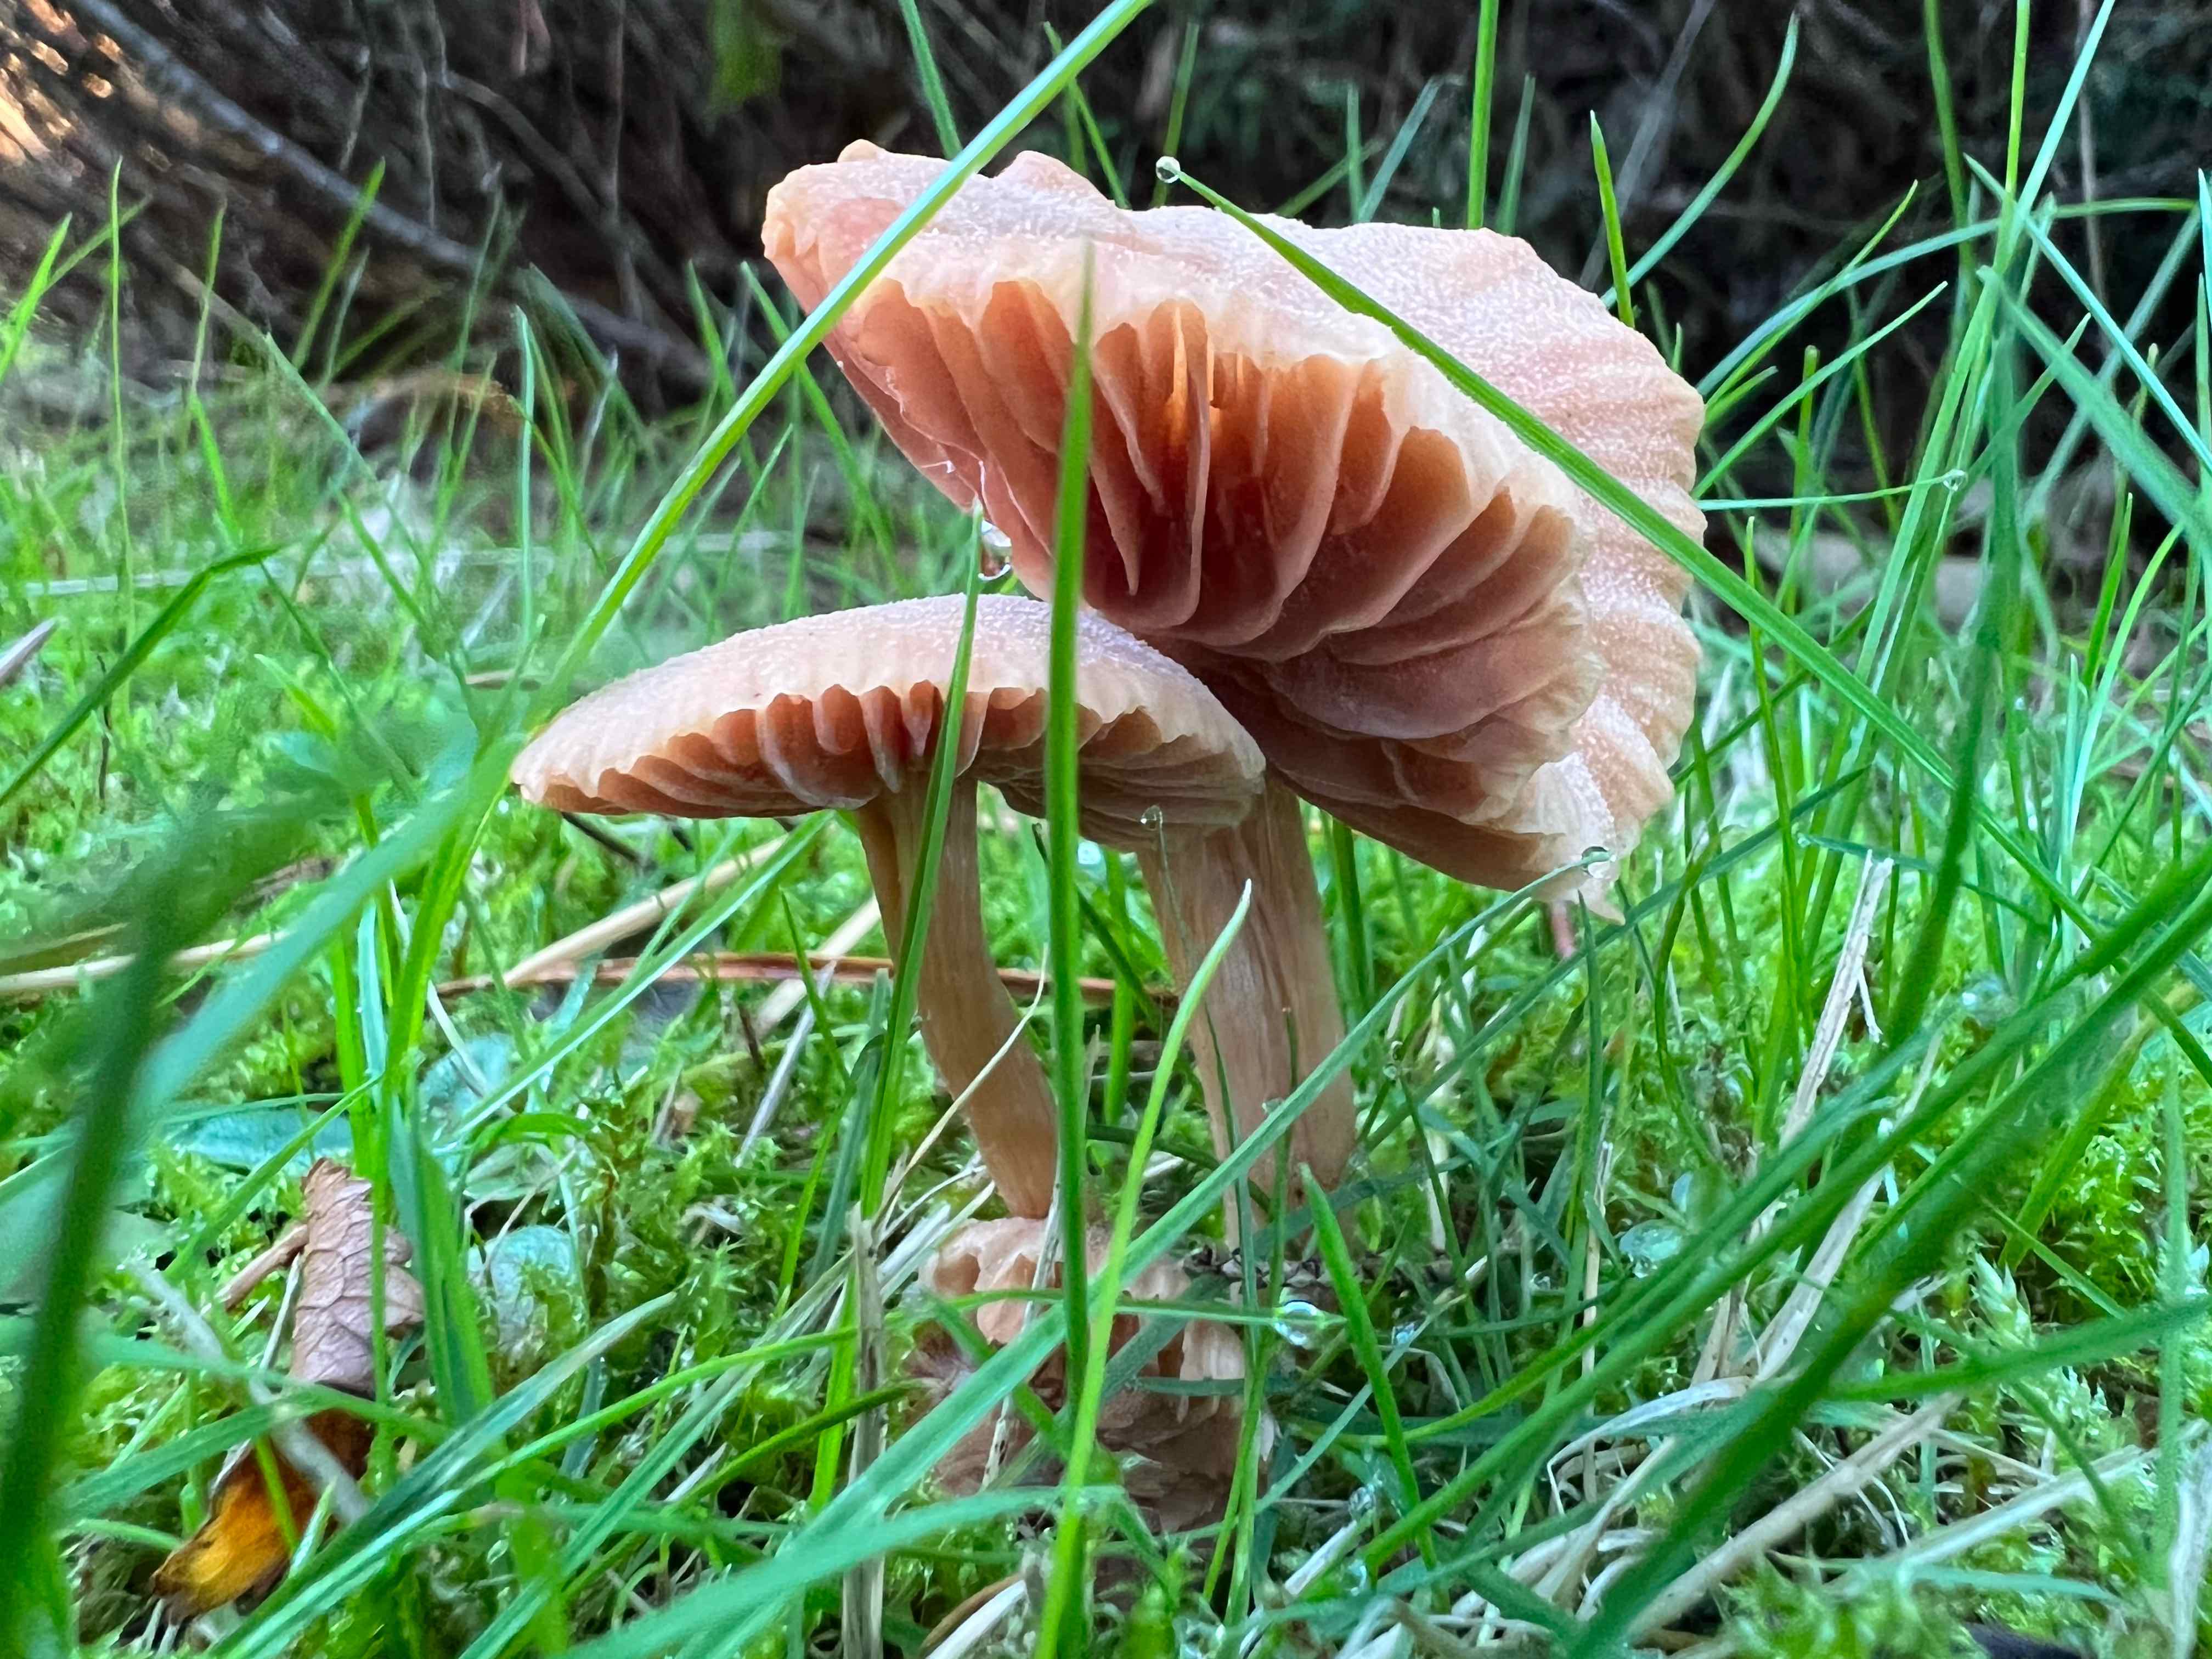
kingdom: Fungi
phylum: Basidiomycota
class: Agaricomycetes
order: Agaricales
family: Hydnangiaceae
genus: Laccaria
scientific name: Laccaria
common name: ametysthat
